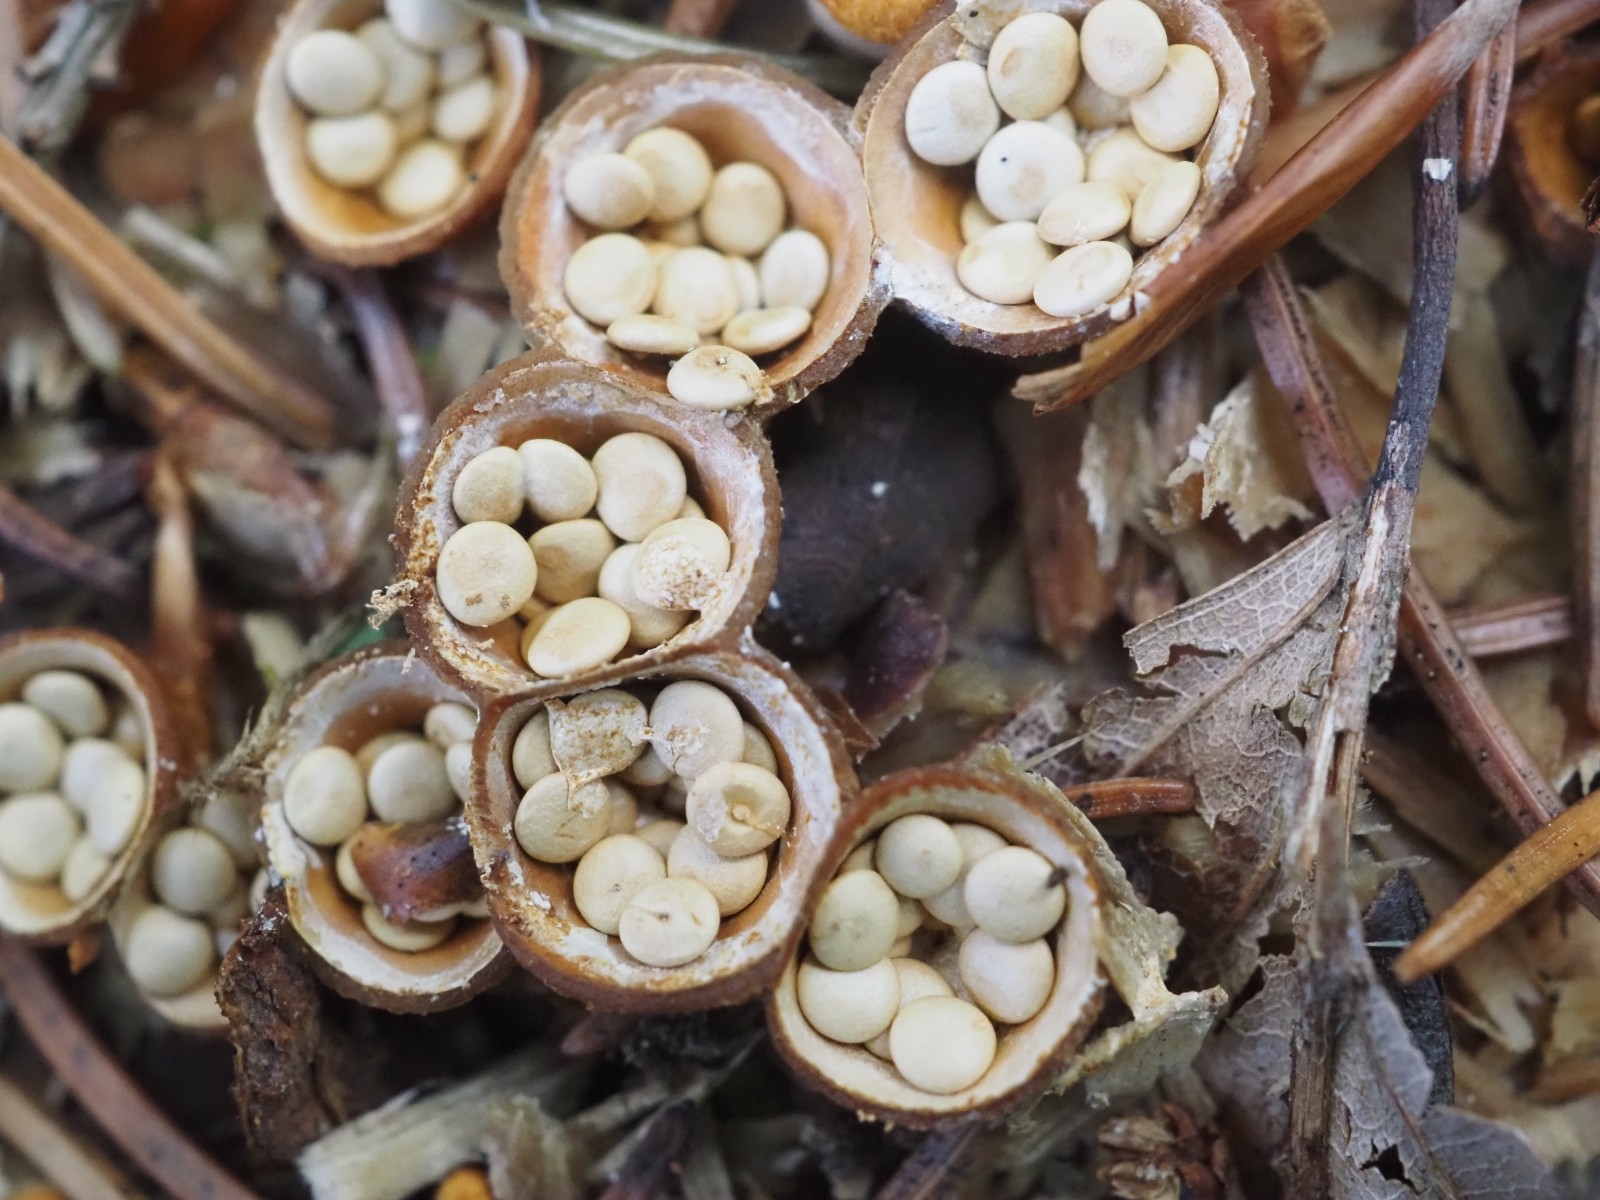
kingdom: Fungi
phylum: Basidiomycota
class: Agaricomycetes
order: Agaricales
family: Nidulariaceae
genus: Crucibulum
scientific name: Crucibulum crucibuliforme
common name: krukkesvamp
